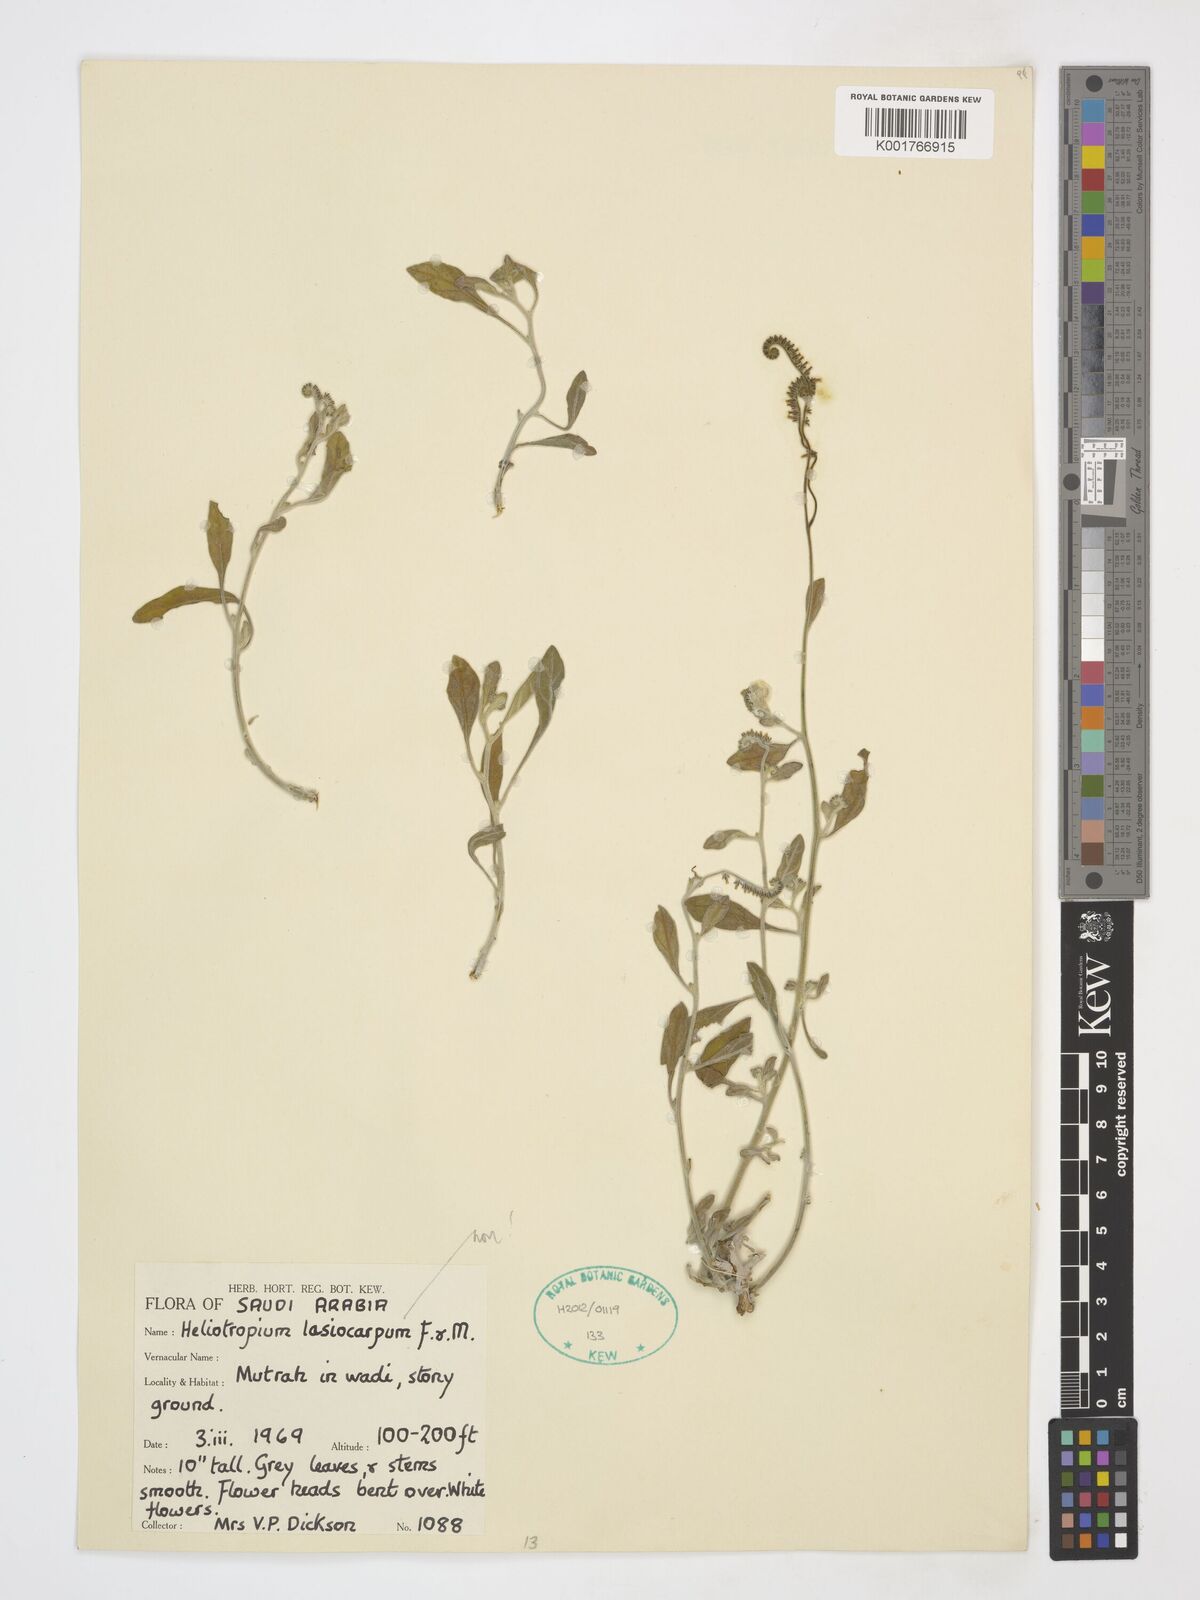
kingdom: Plantae
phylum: Tracheophyta
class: Magnoliopsida
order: Boraginales
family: Heliotropiaceae
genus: Heliotropium
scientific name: Heliotropium lasiocarpum
